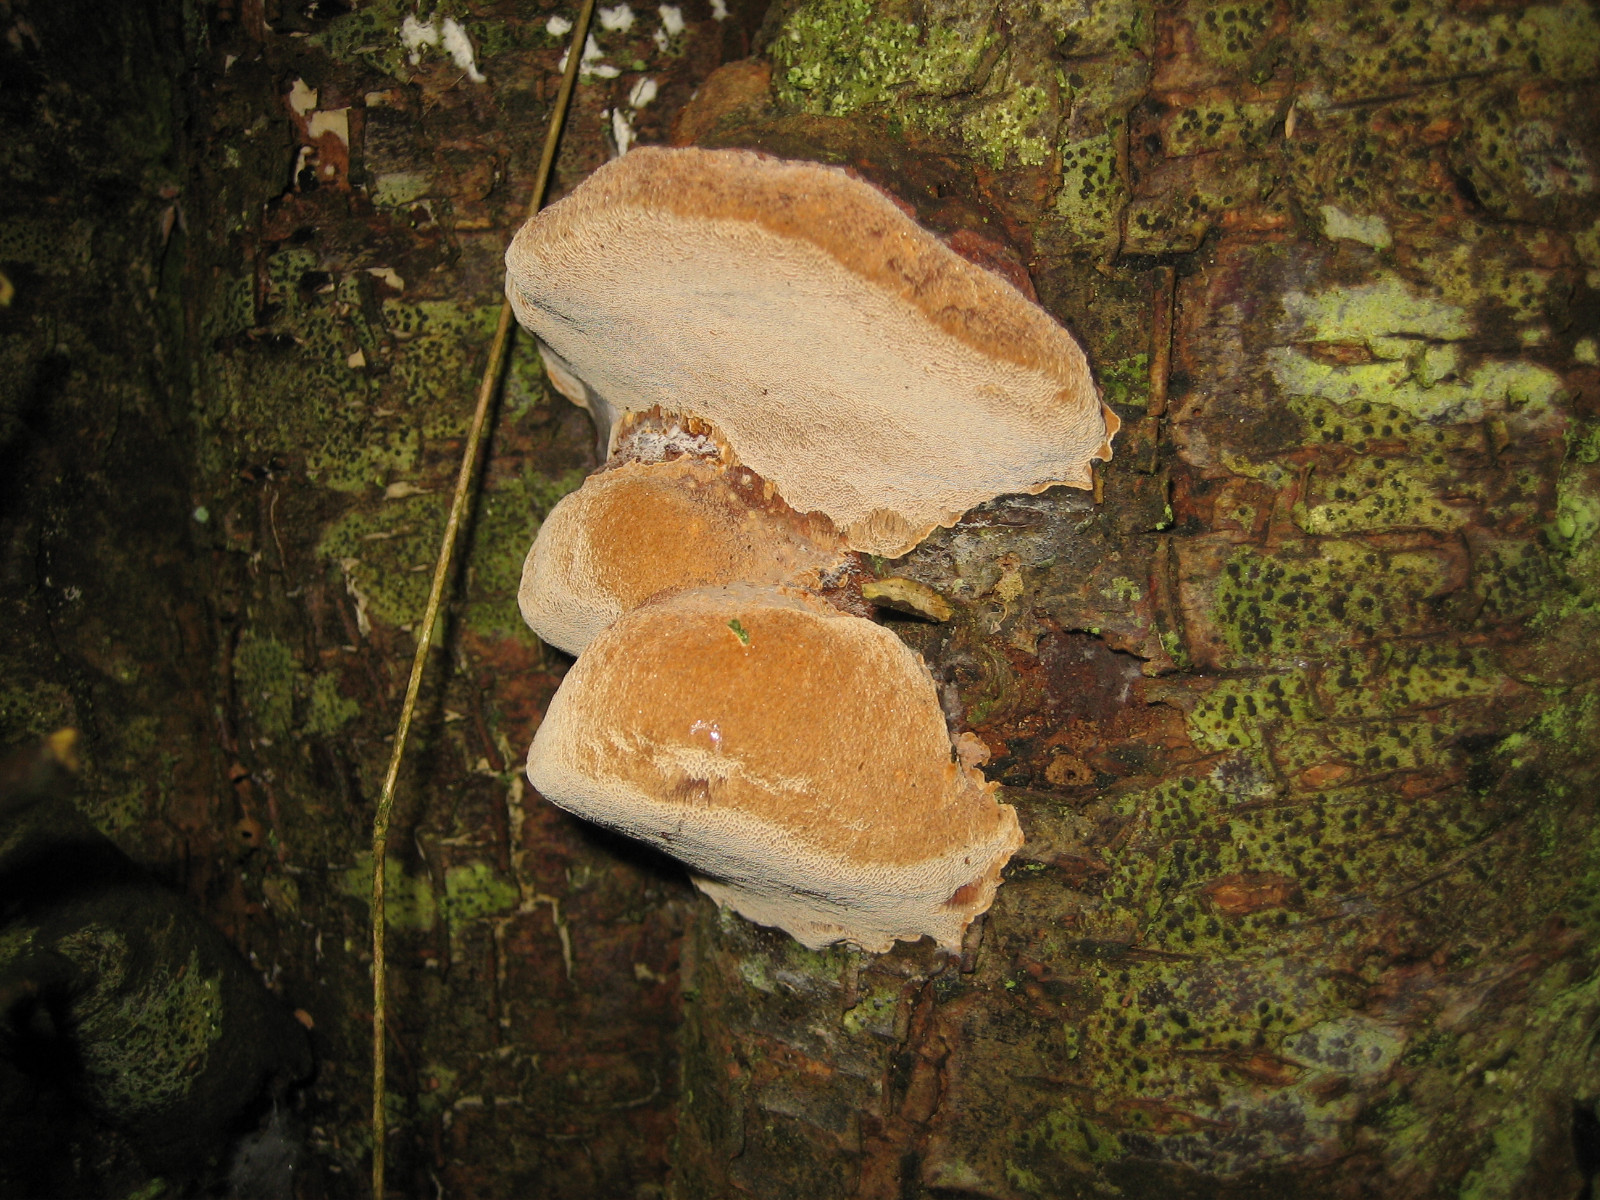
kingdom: Fungi
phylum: Basidiomycota
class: Agaricomycetes
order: Hymenochaetales
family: Hymenochaetaceae
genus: Phellinus
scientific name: Phellinus pomaceus
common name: blomme-ildporesvamp
